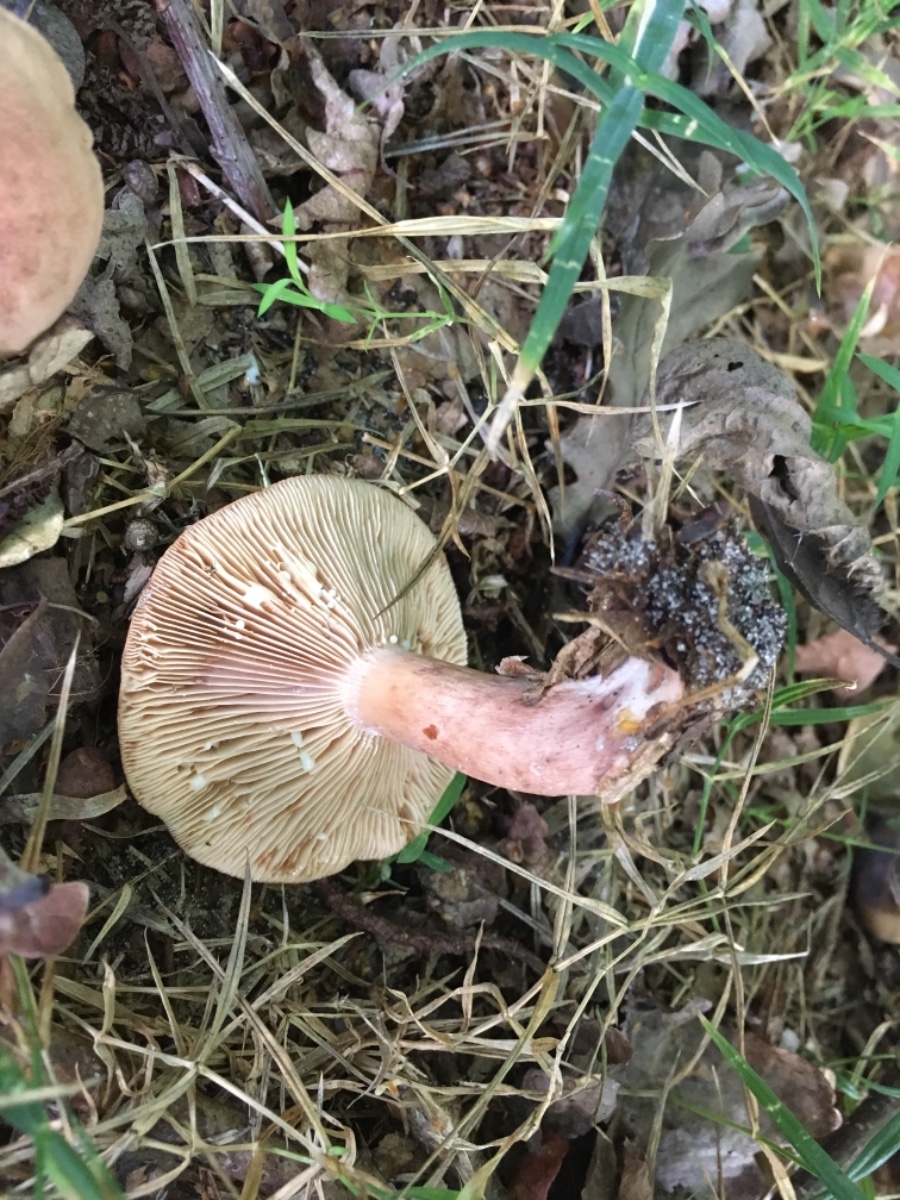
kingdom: Fungi
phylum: Basidiomycota
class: Agaricomycetes
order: Russulales
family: Russulaceae
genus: Lactarius
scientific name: Lactarius quietus
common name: ege-mælkehat
